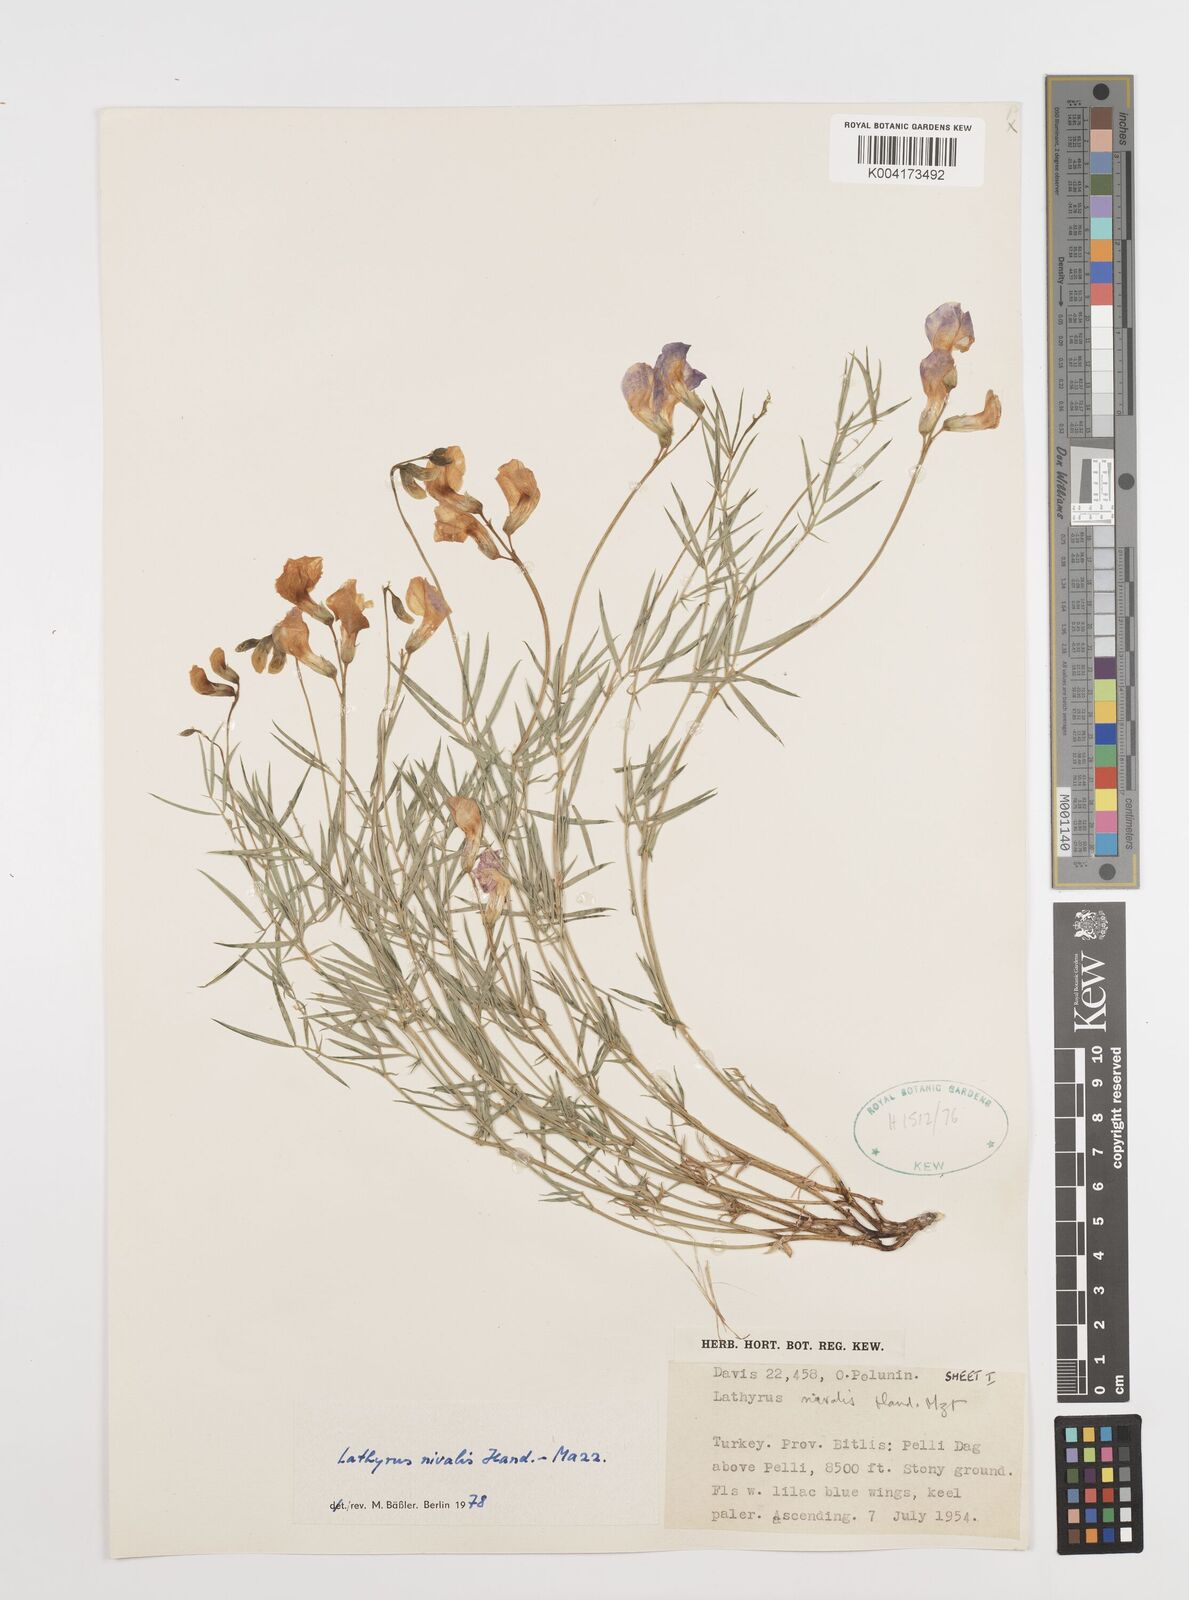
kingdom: Plantae
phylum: Tracheophyta
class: Magnoliopsida
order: Fabales
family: Fabaceae
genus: Lathyrus
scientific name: Lathyrus nivalis
